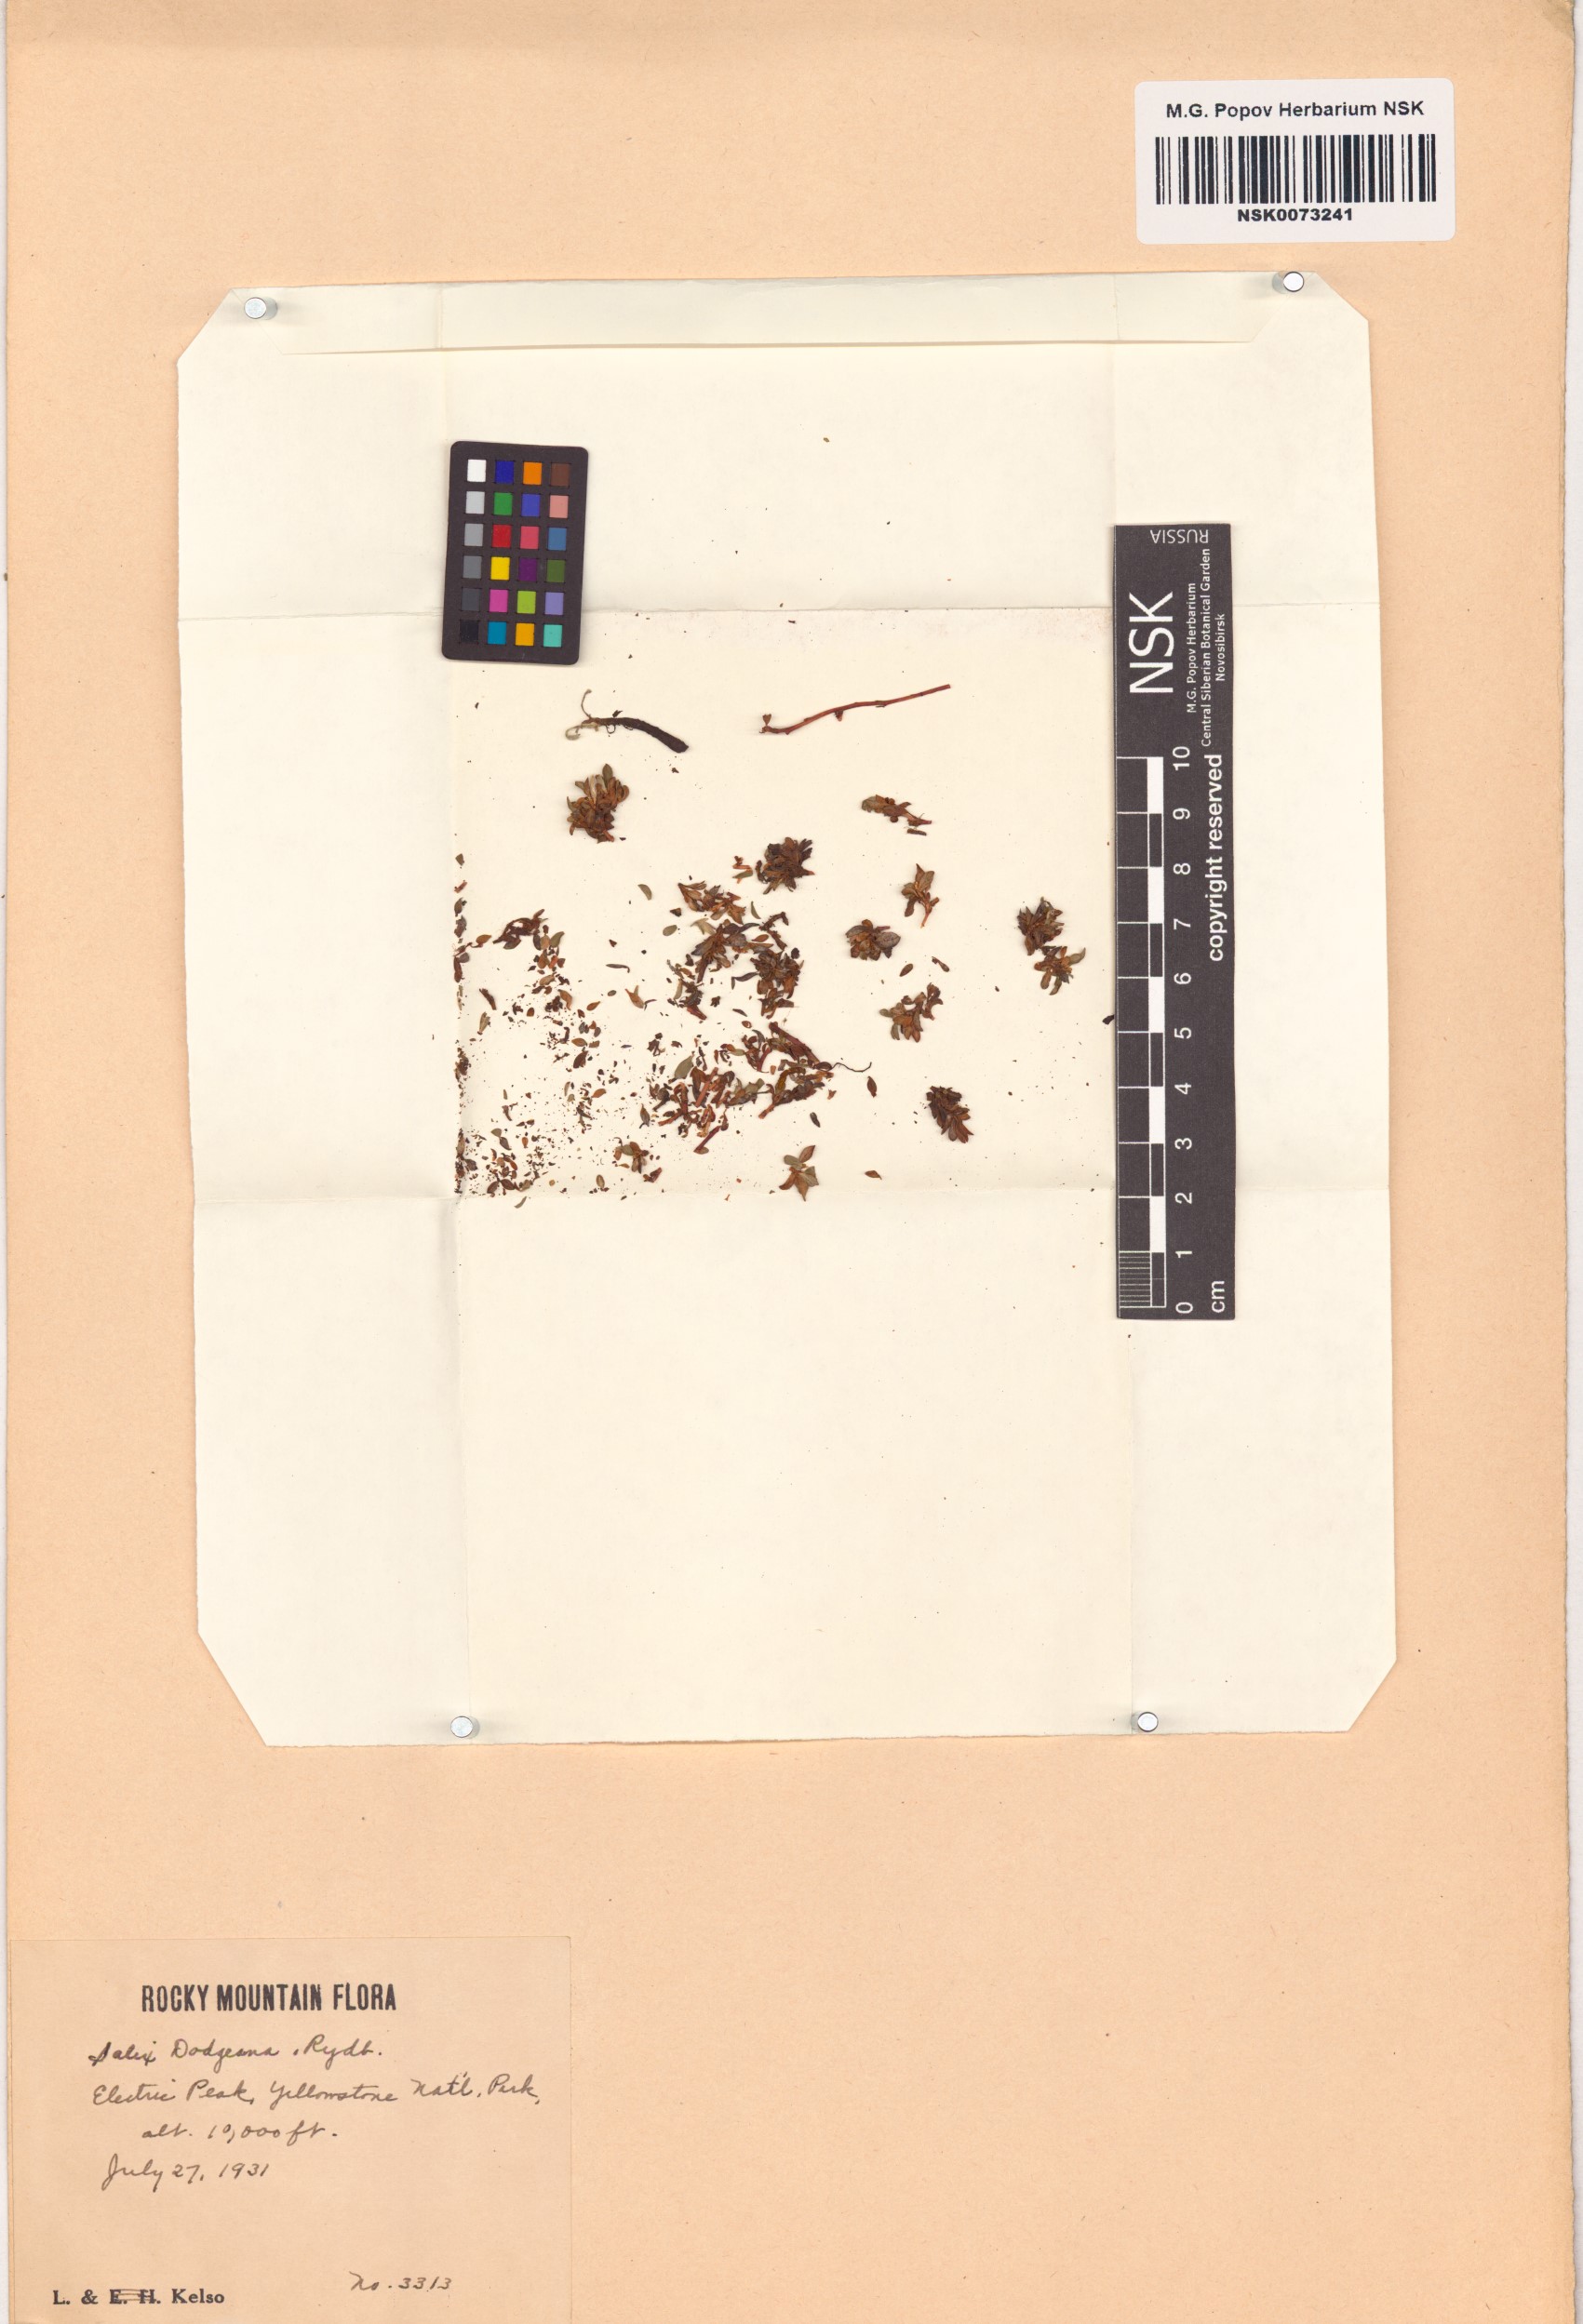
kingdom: Plantae
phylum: Tracheophyta
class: Magnoliopsida
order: Malpighiales
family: Salicaceae
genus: Salix
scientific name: Salix rotundifolia
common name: Least willow
